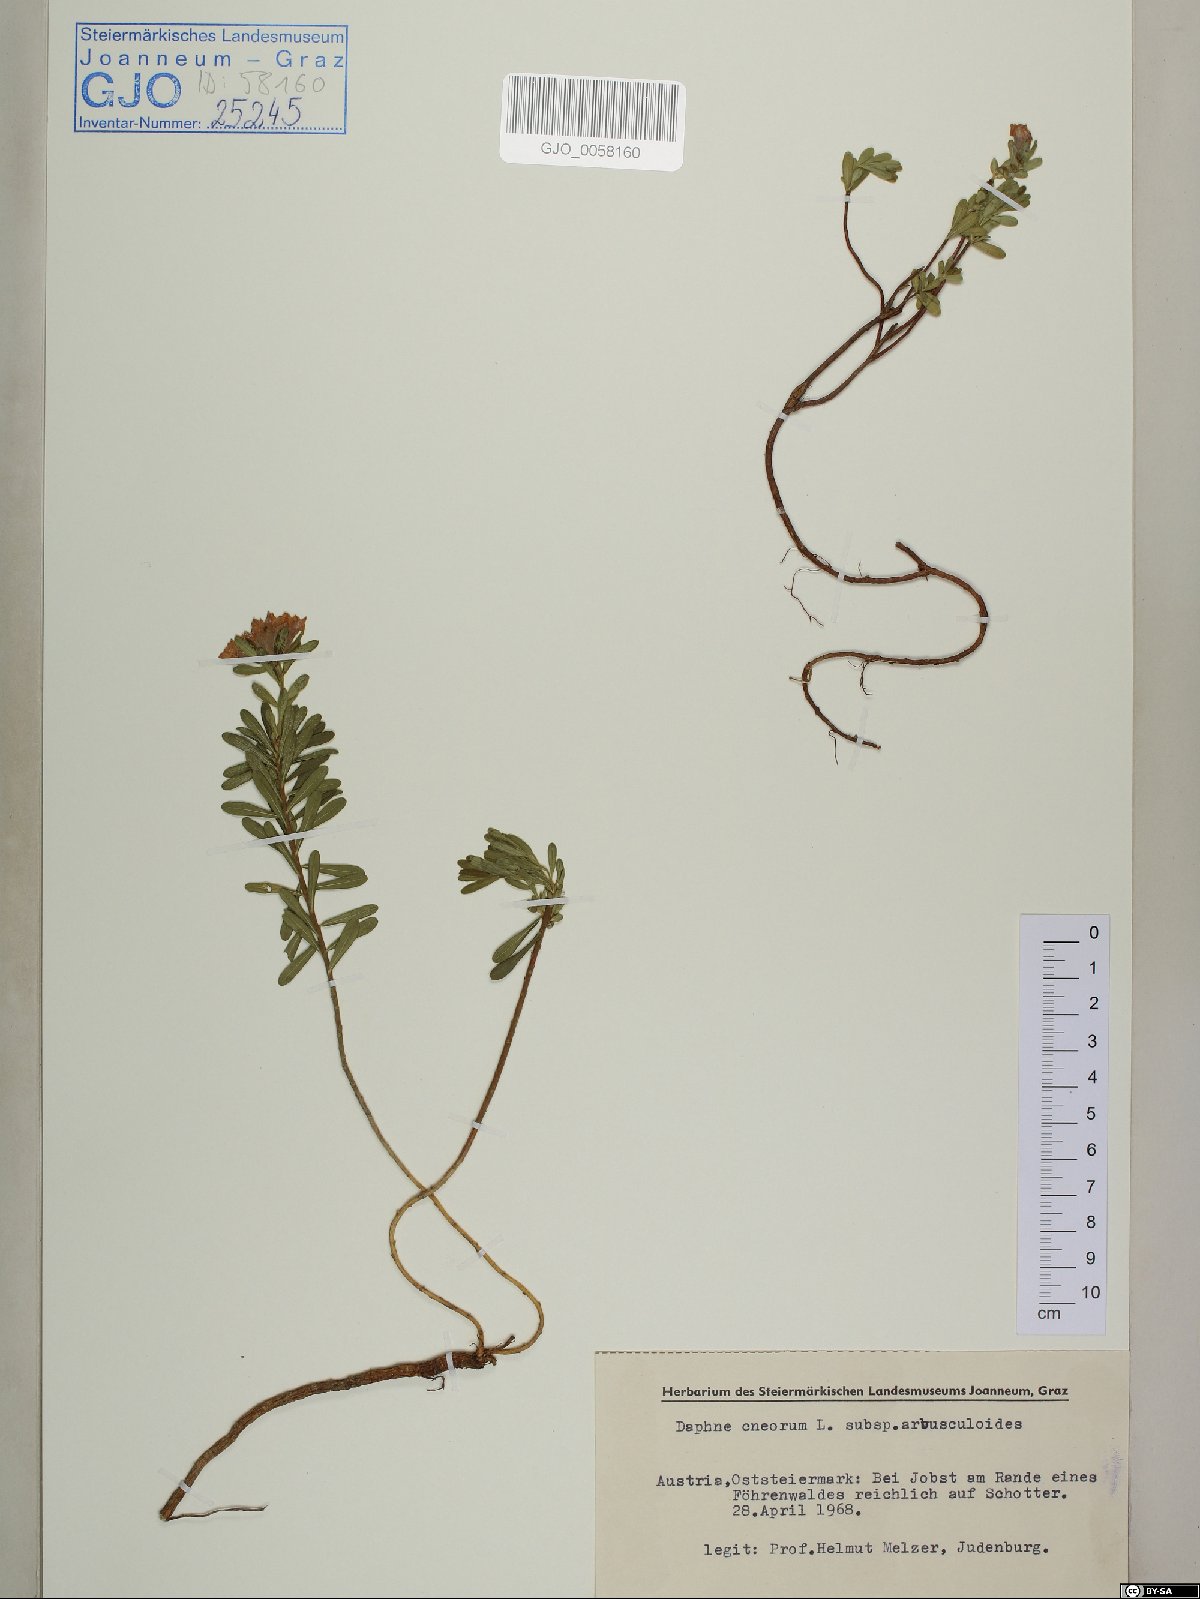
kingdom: Plantae
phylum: Tracheophyta
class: Magnoliopsida
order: Malvales
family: Thymelaeaceae
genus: Daphne
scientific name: Daphne cneorum
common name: Garland-flower
